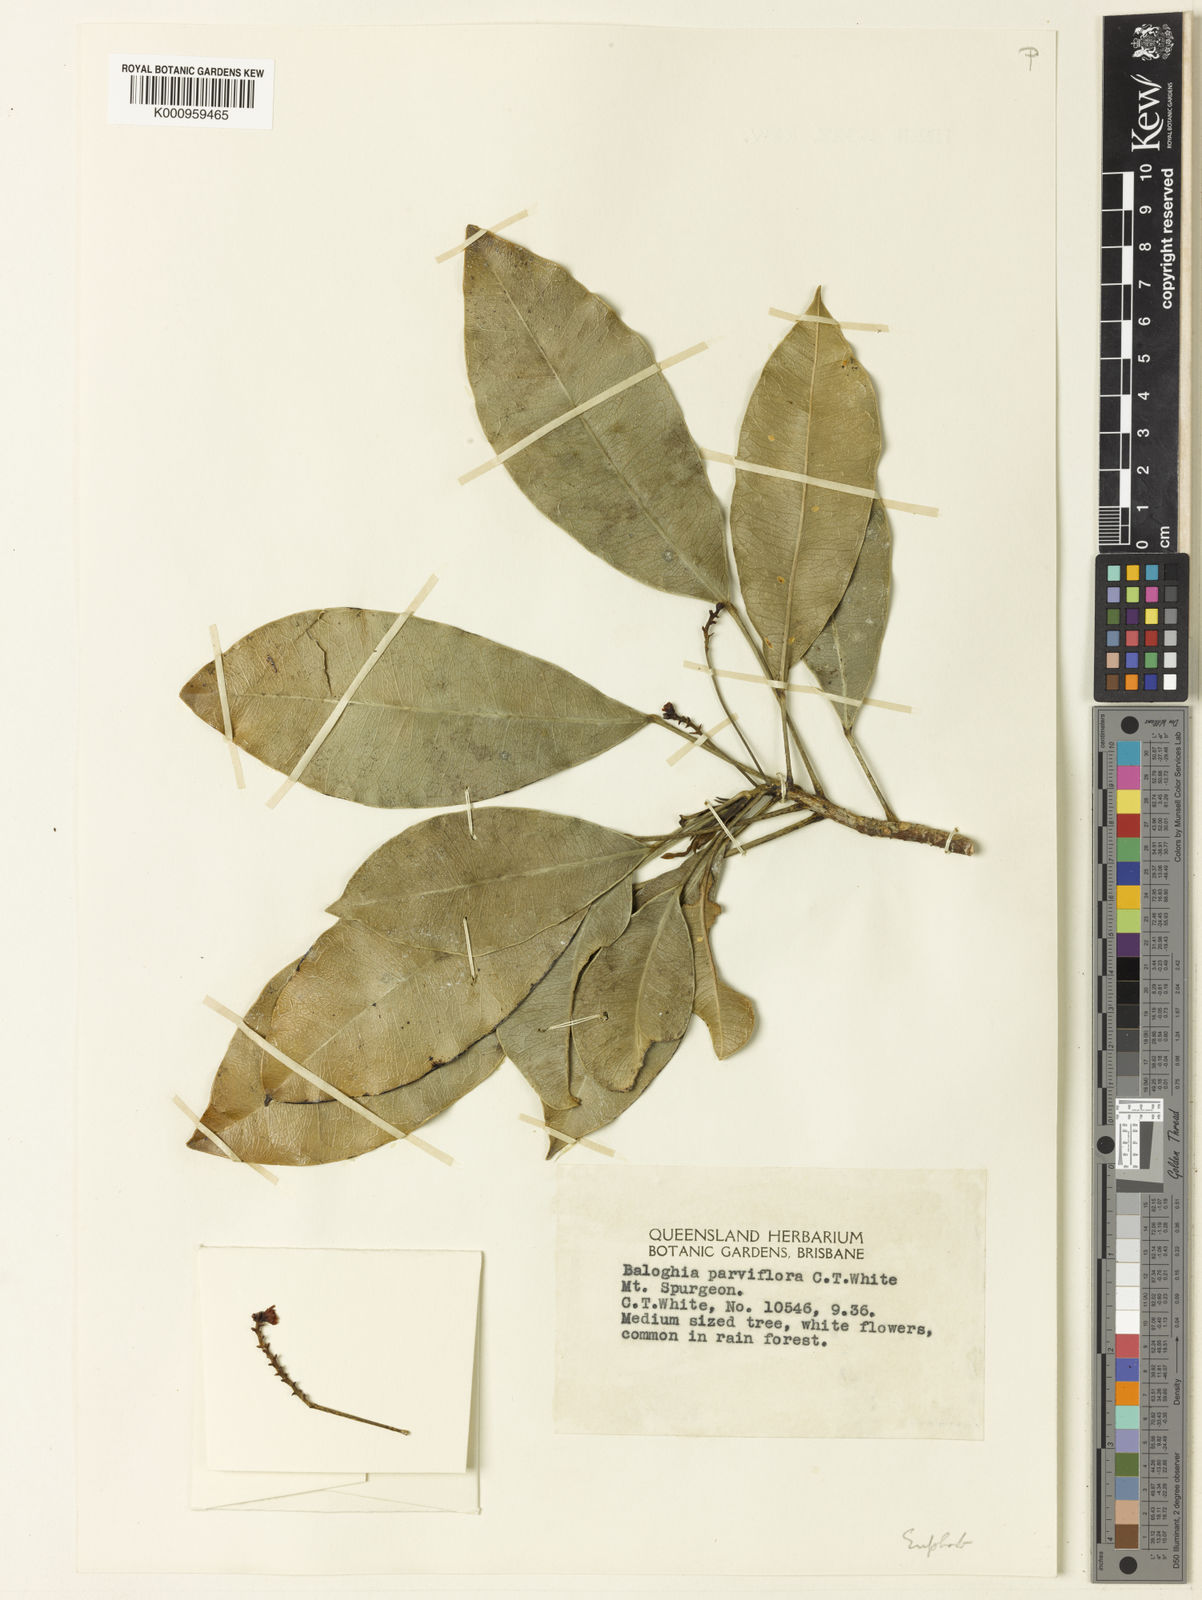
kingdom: Plantae
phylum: Tracheophyta
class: Magnoliopsida
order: Malpighiales
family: Euphorbiaceae
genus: Baloghia
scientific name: Baloghia parviflora
